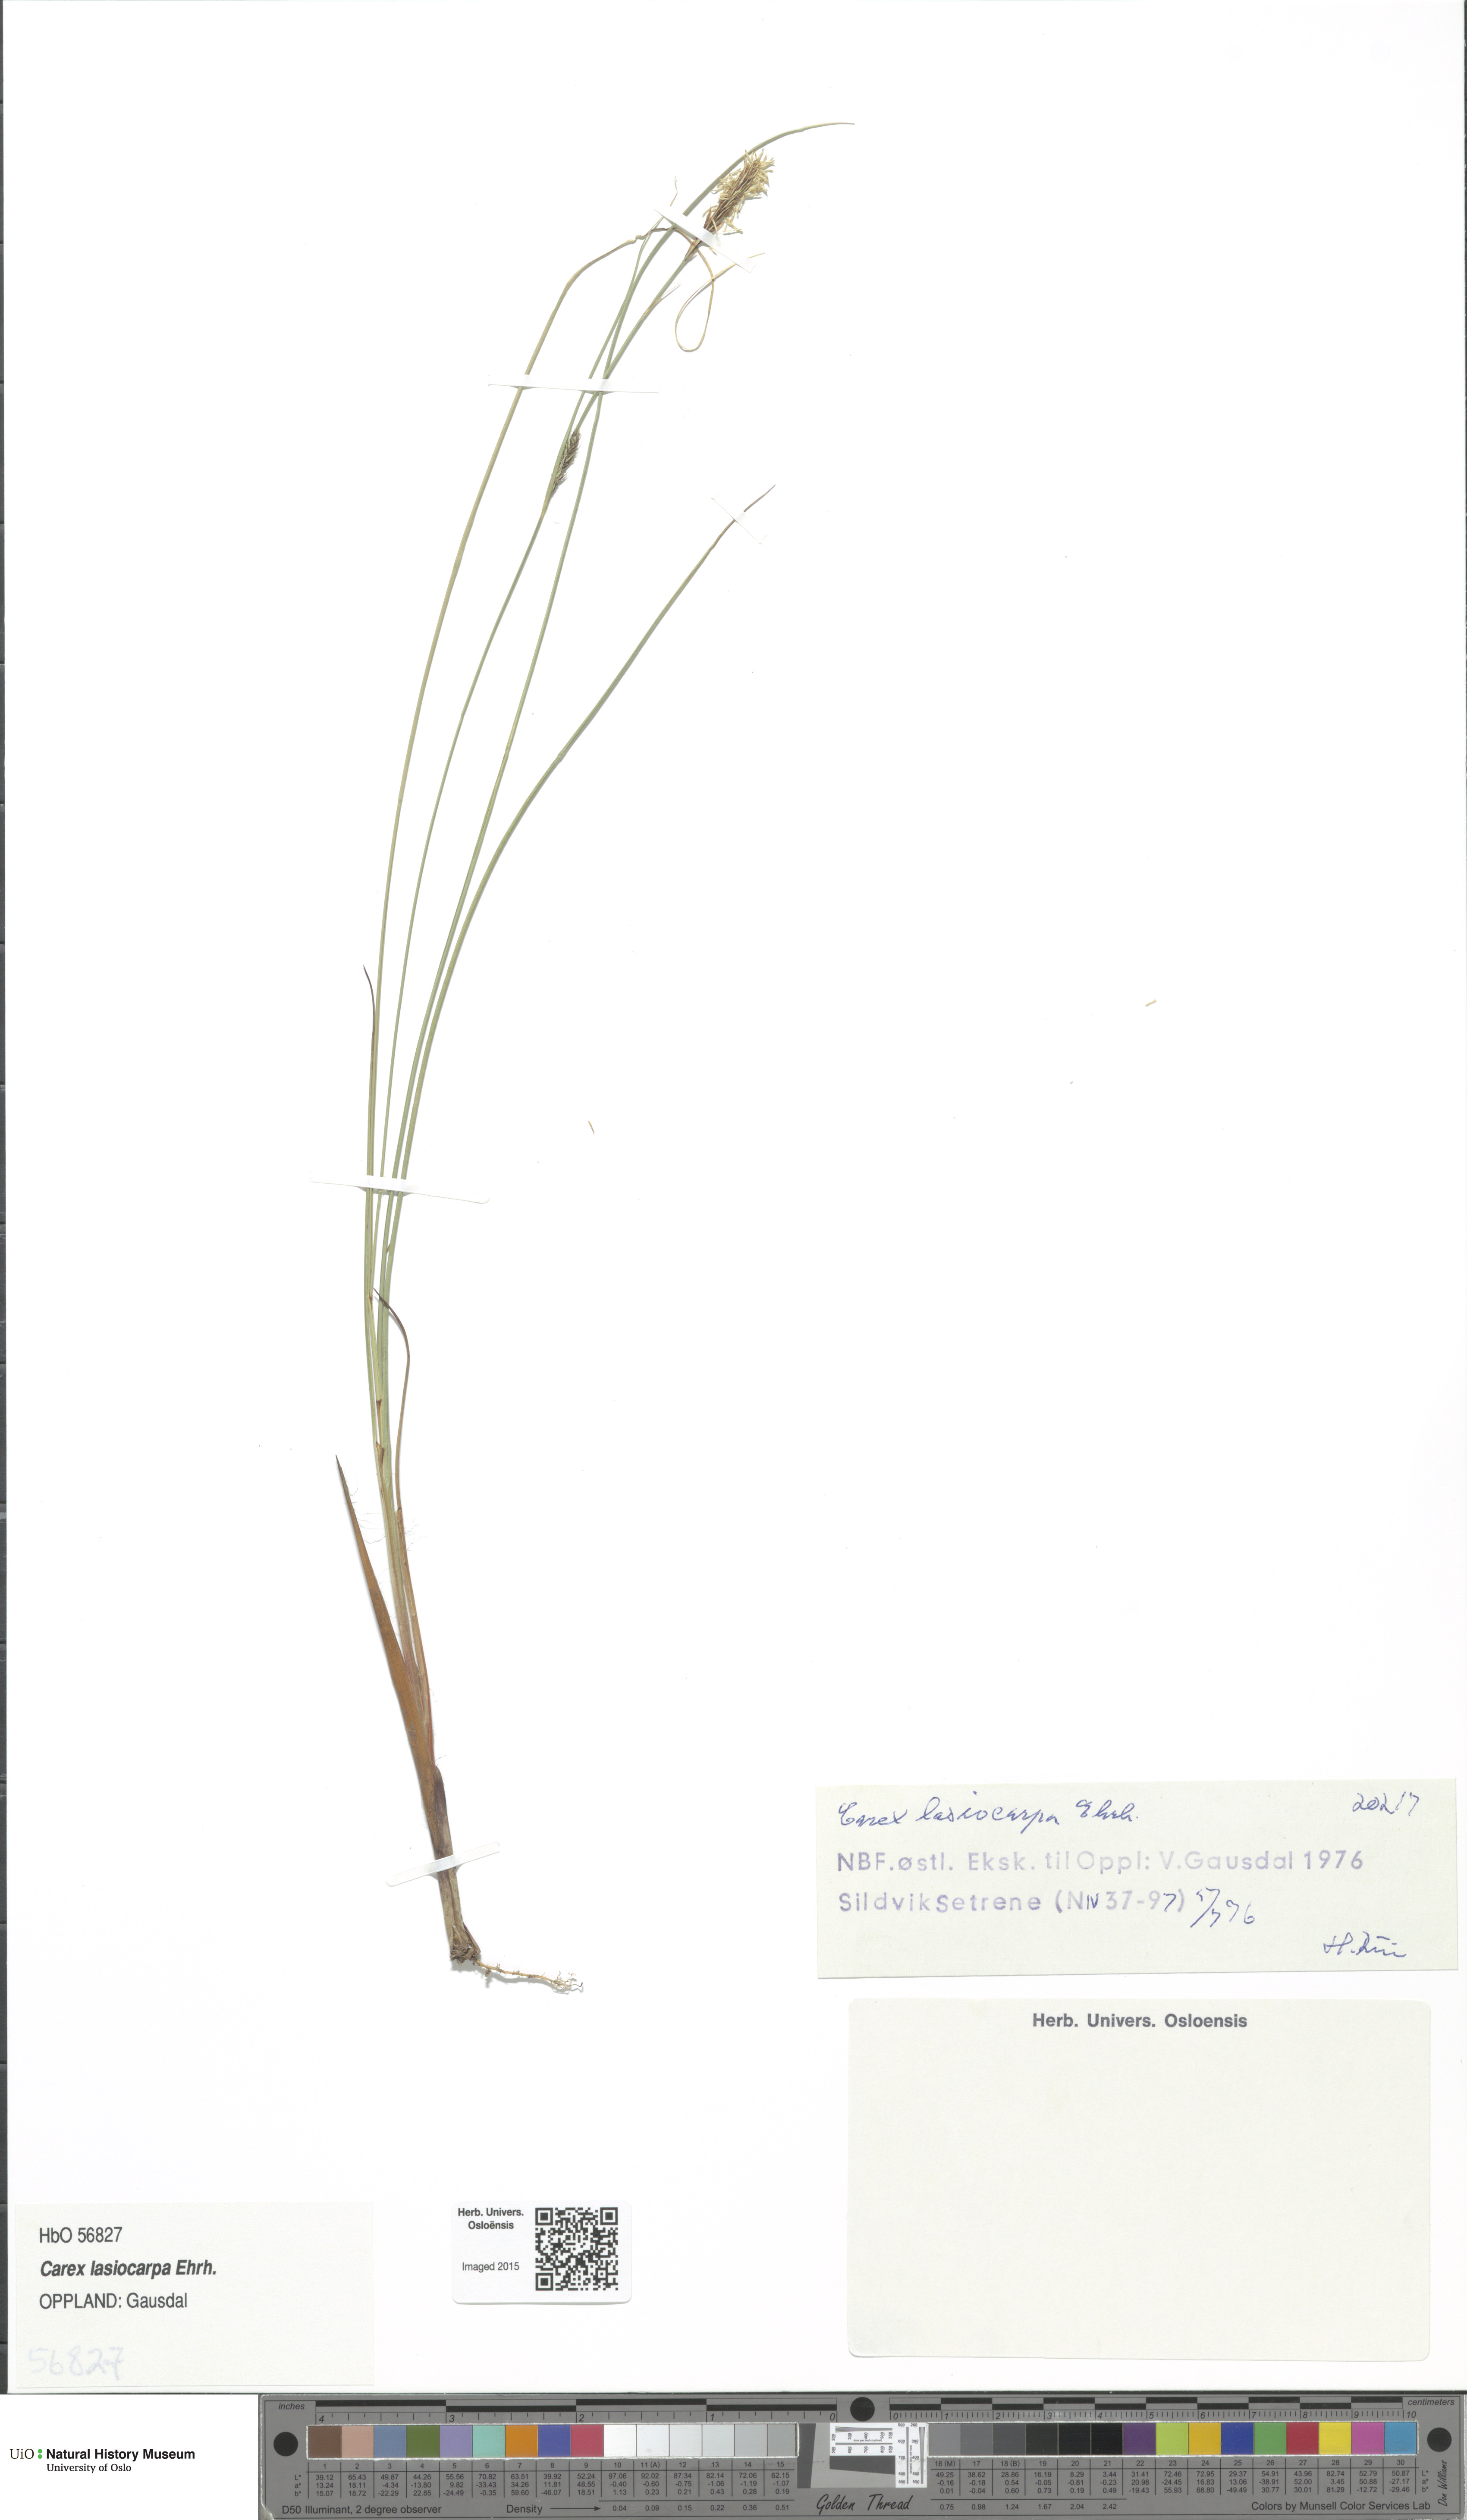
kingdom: Plantae
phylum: Tracheophyta
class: Liliopsida
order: Poales
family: Cyperaceae
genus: Carex
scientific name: Carex lasiocarpa
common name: Slender sedge
